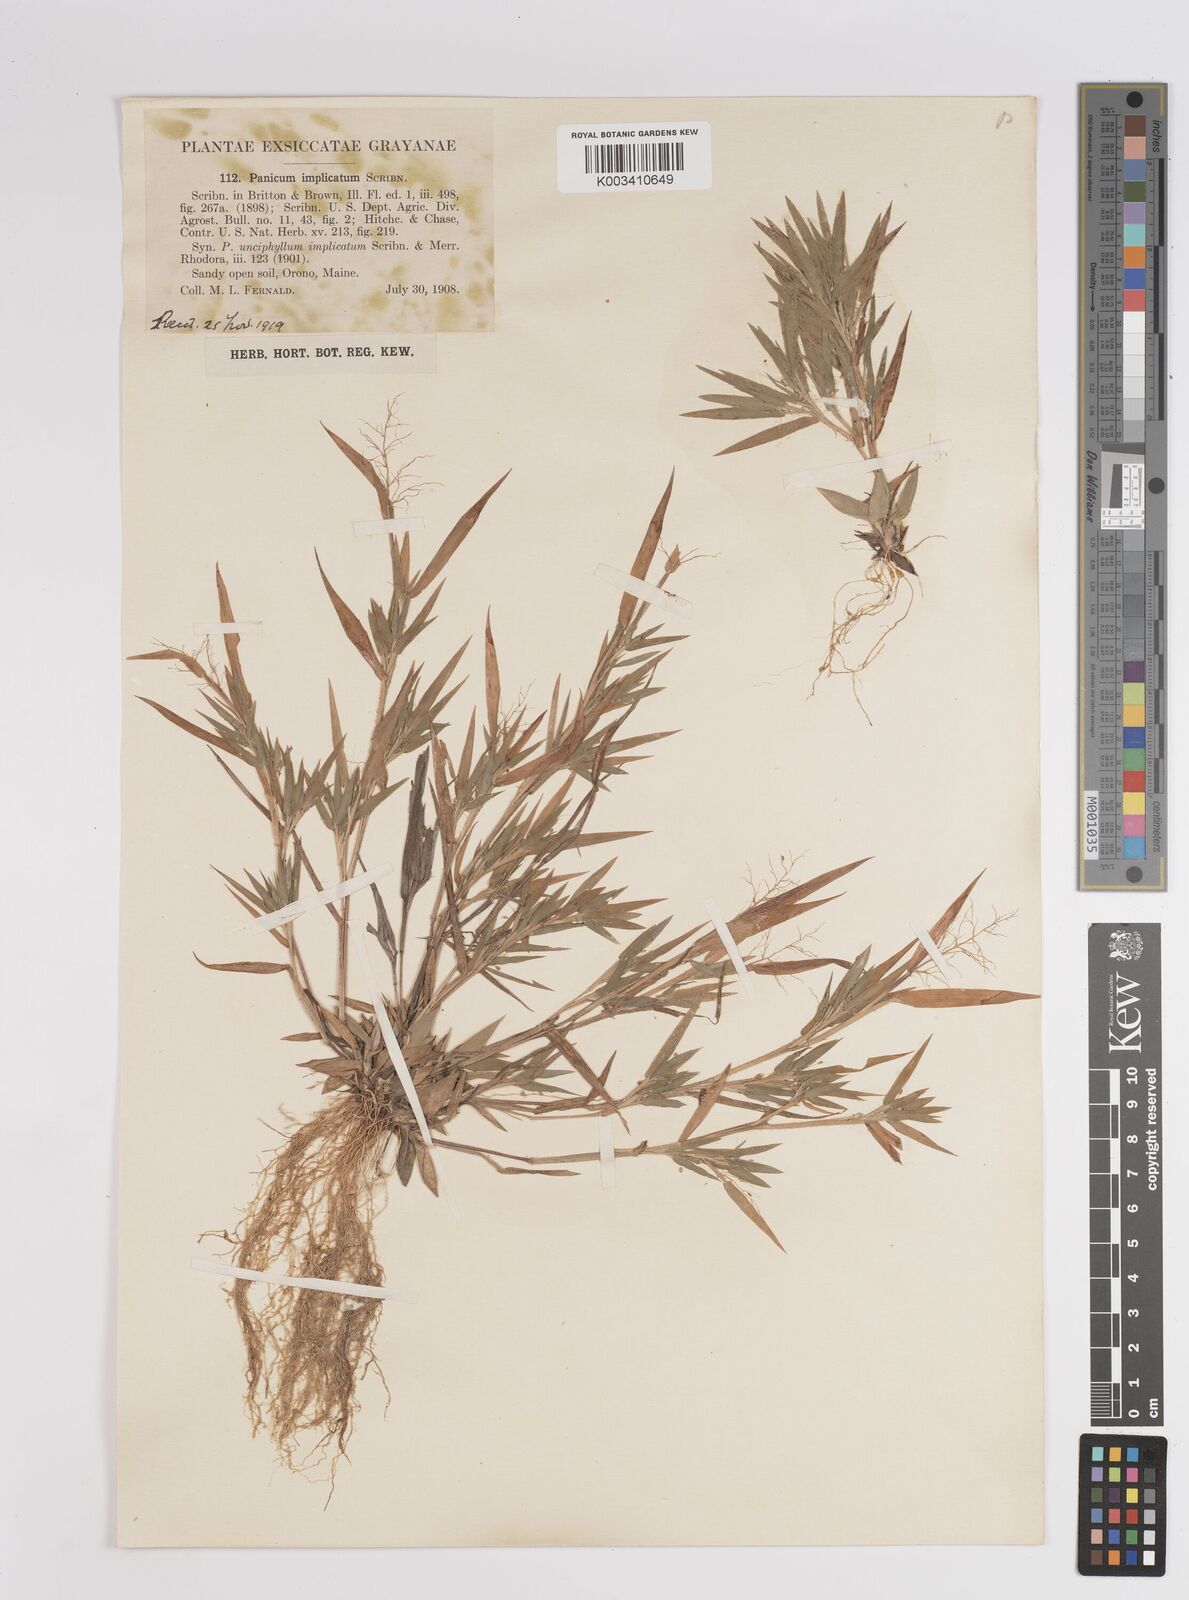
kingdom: Plantae
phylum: Tracheophyta
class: Liliopsida
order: Poales
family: Poaceae
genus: Dichanthelium
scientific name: Dichanthelium implicatum
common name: Slender-stemmed panicgrass
